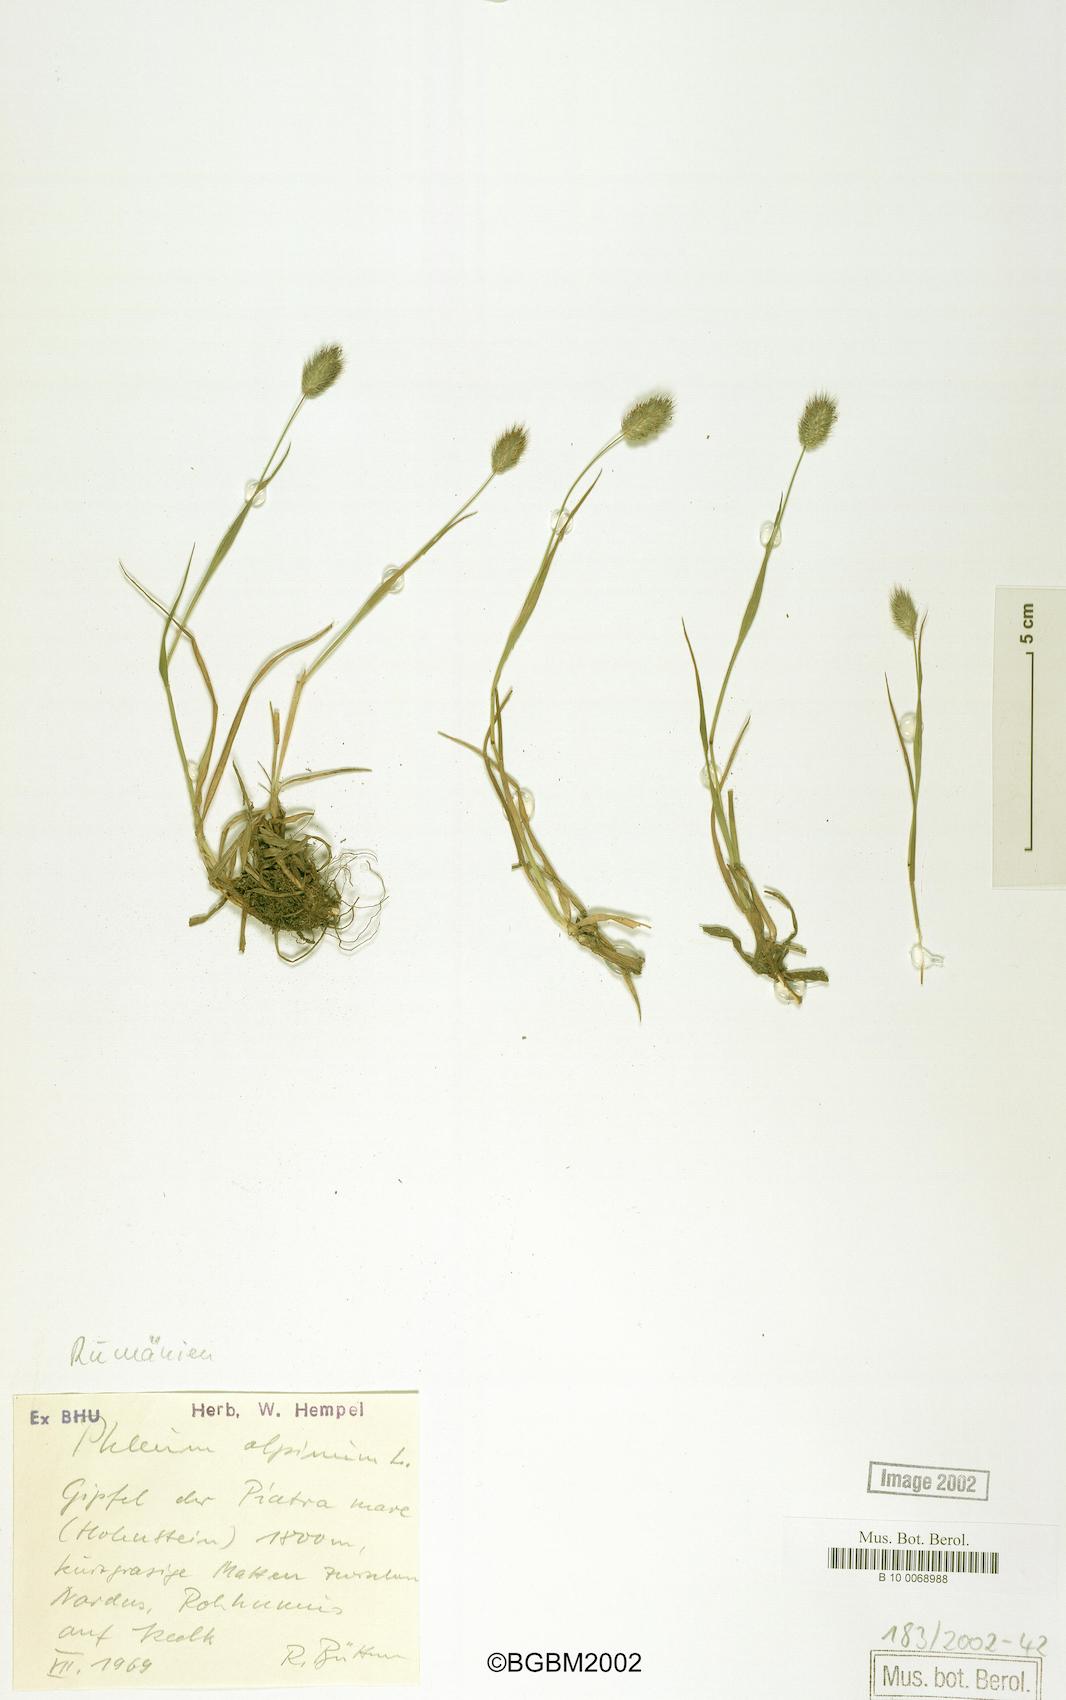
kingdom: Plantae
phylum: Tracheophyta
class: Liliopsida
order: Poales
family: Poaceae
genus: Phleum
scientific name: Phleum alpinum
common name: Alpine cat's-tail
